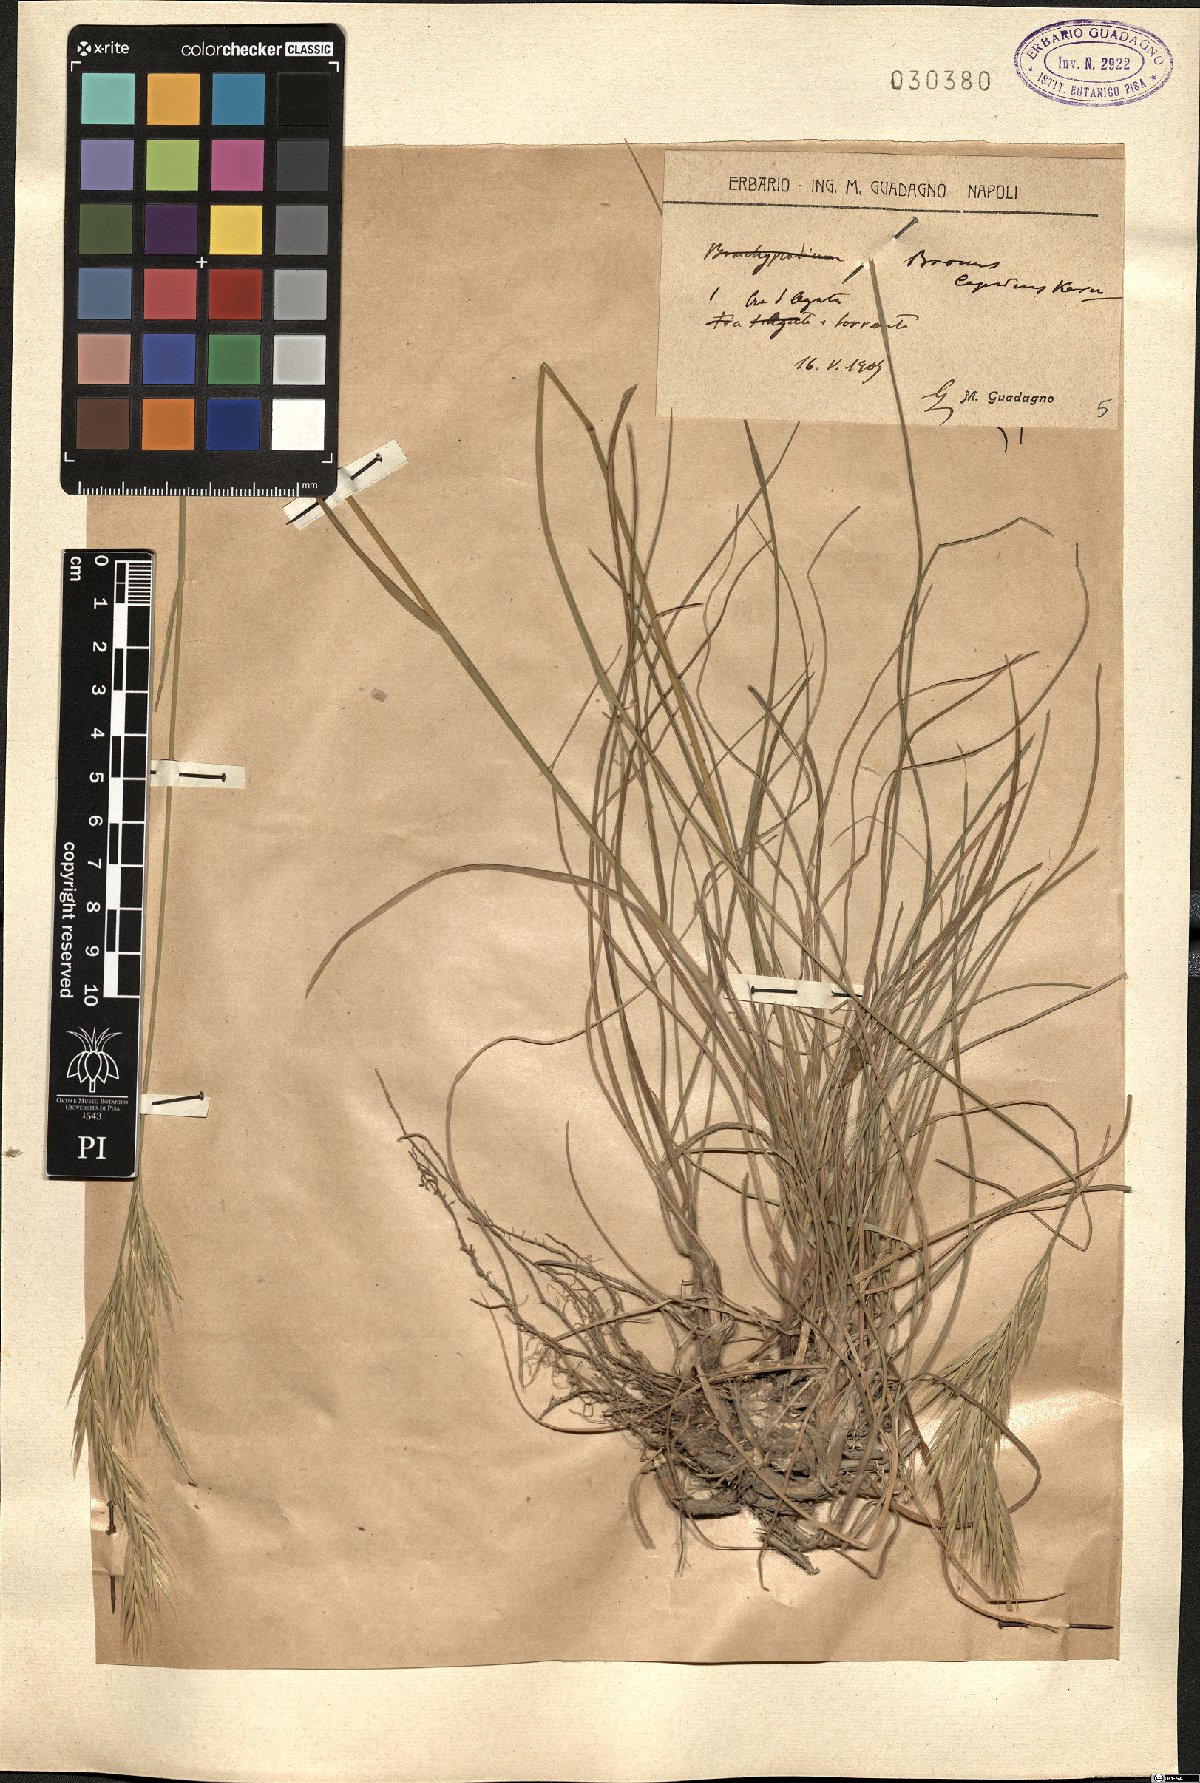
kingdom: Plantae
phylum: Tracheophyta
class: Liliopsida
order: Poales
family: Poaceae
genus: Bromus
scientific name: Bromus erectus
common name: Erect brome
